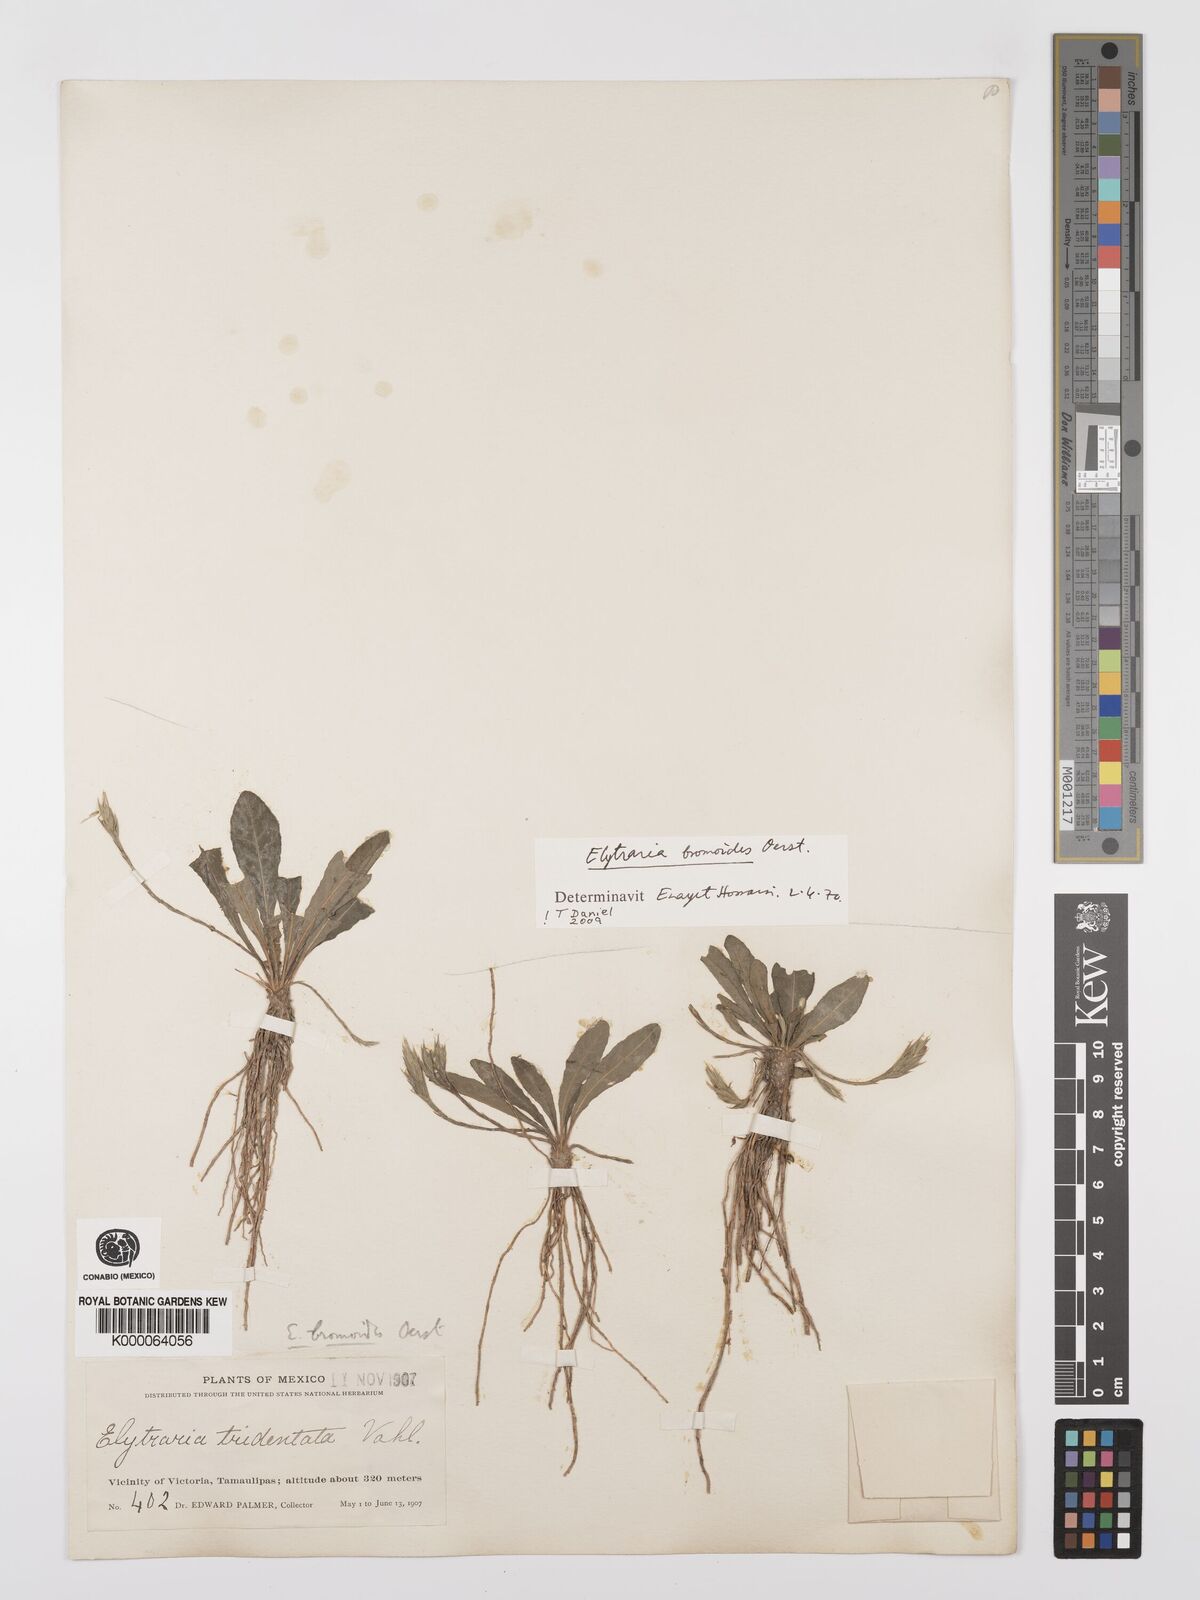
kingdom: Plantae
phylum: Tracheophyta
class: Magnoliopsida
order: Lamiales
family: Acanthaceae
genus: Elytraria
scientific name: Elytraria bromoides
